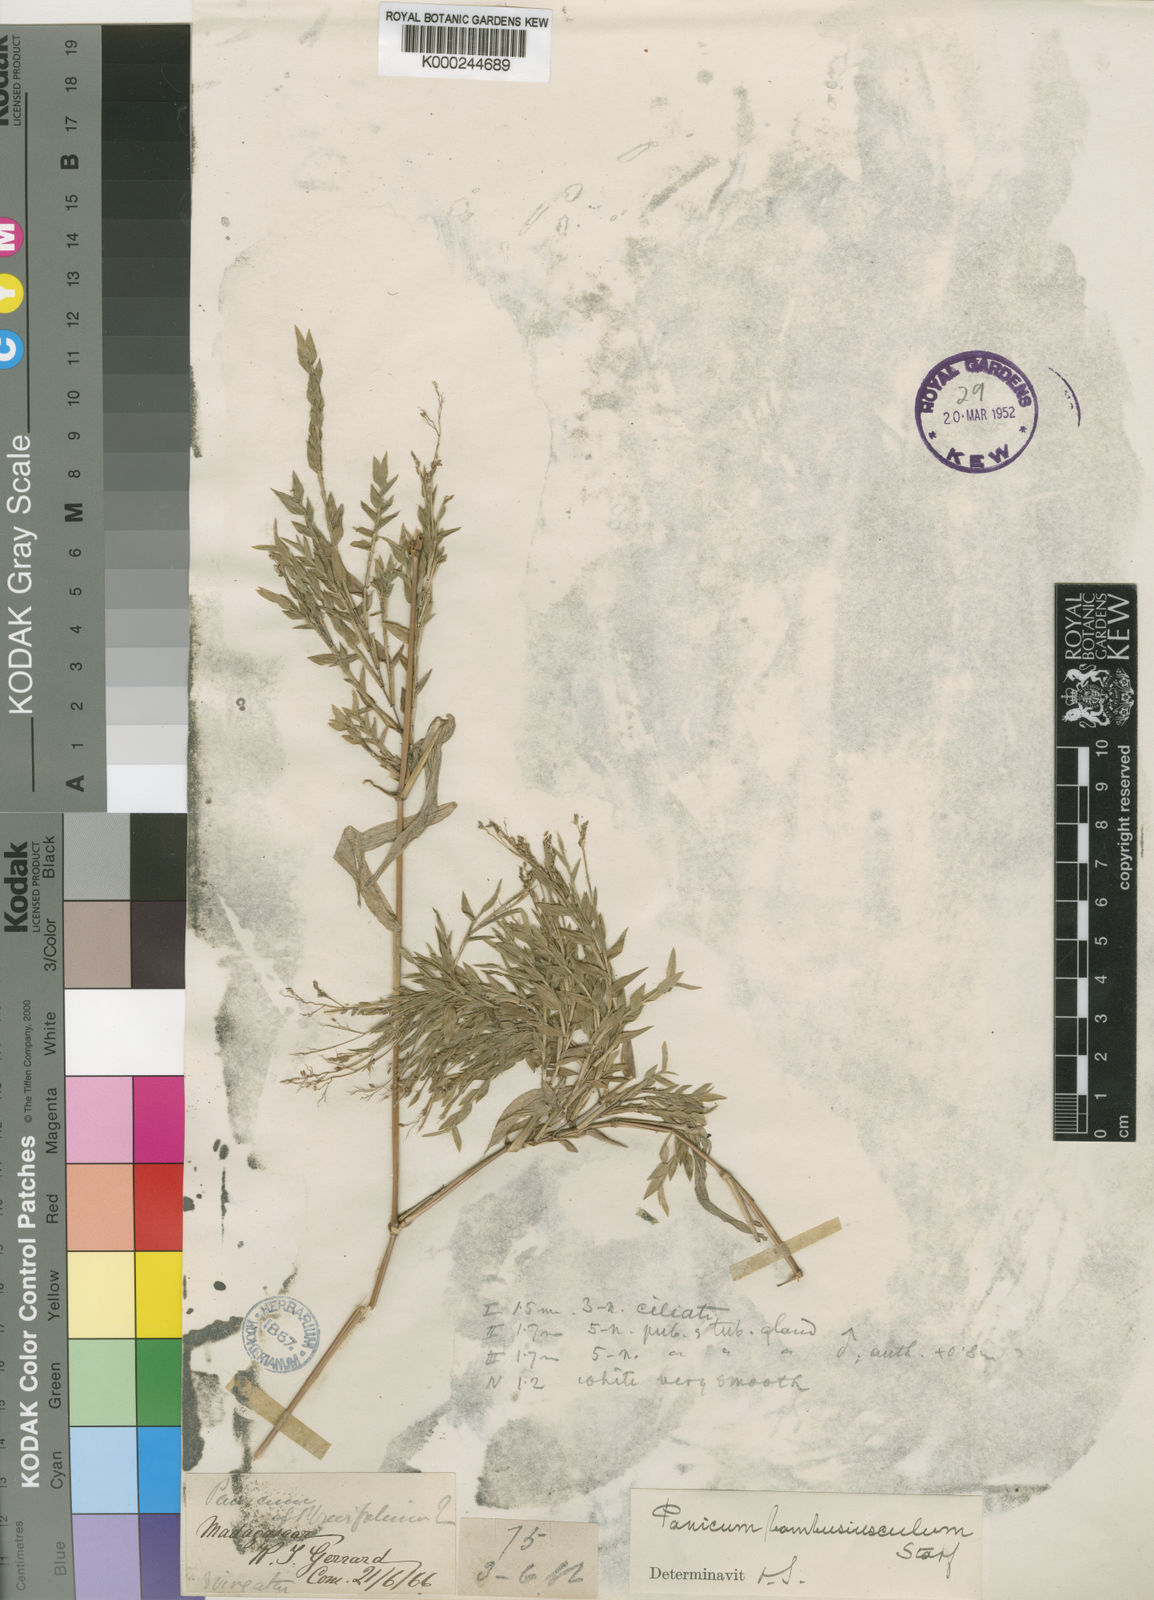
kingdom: Plantae
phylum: Tracheophyta
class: Liliopsida
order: Poales
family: Poaceae
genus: Panicum
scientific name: Panicum bambusiusculum
